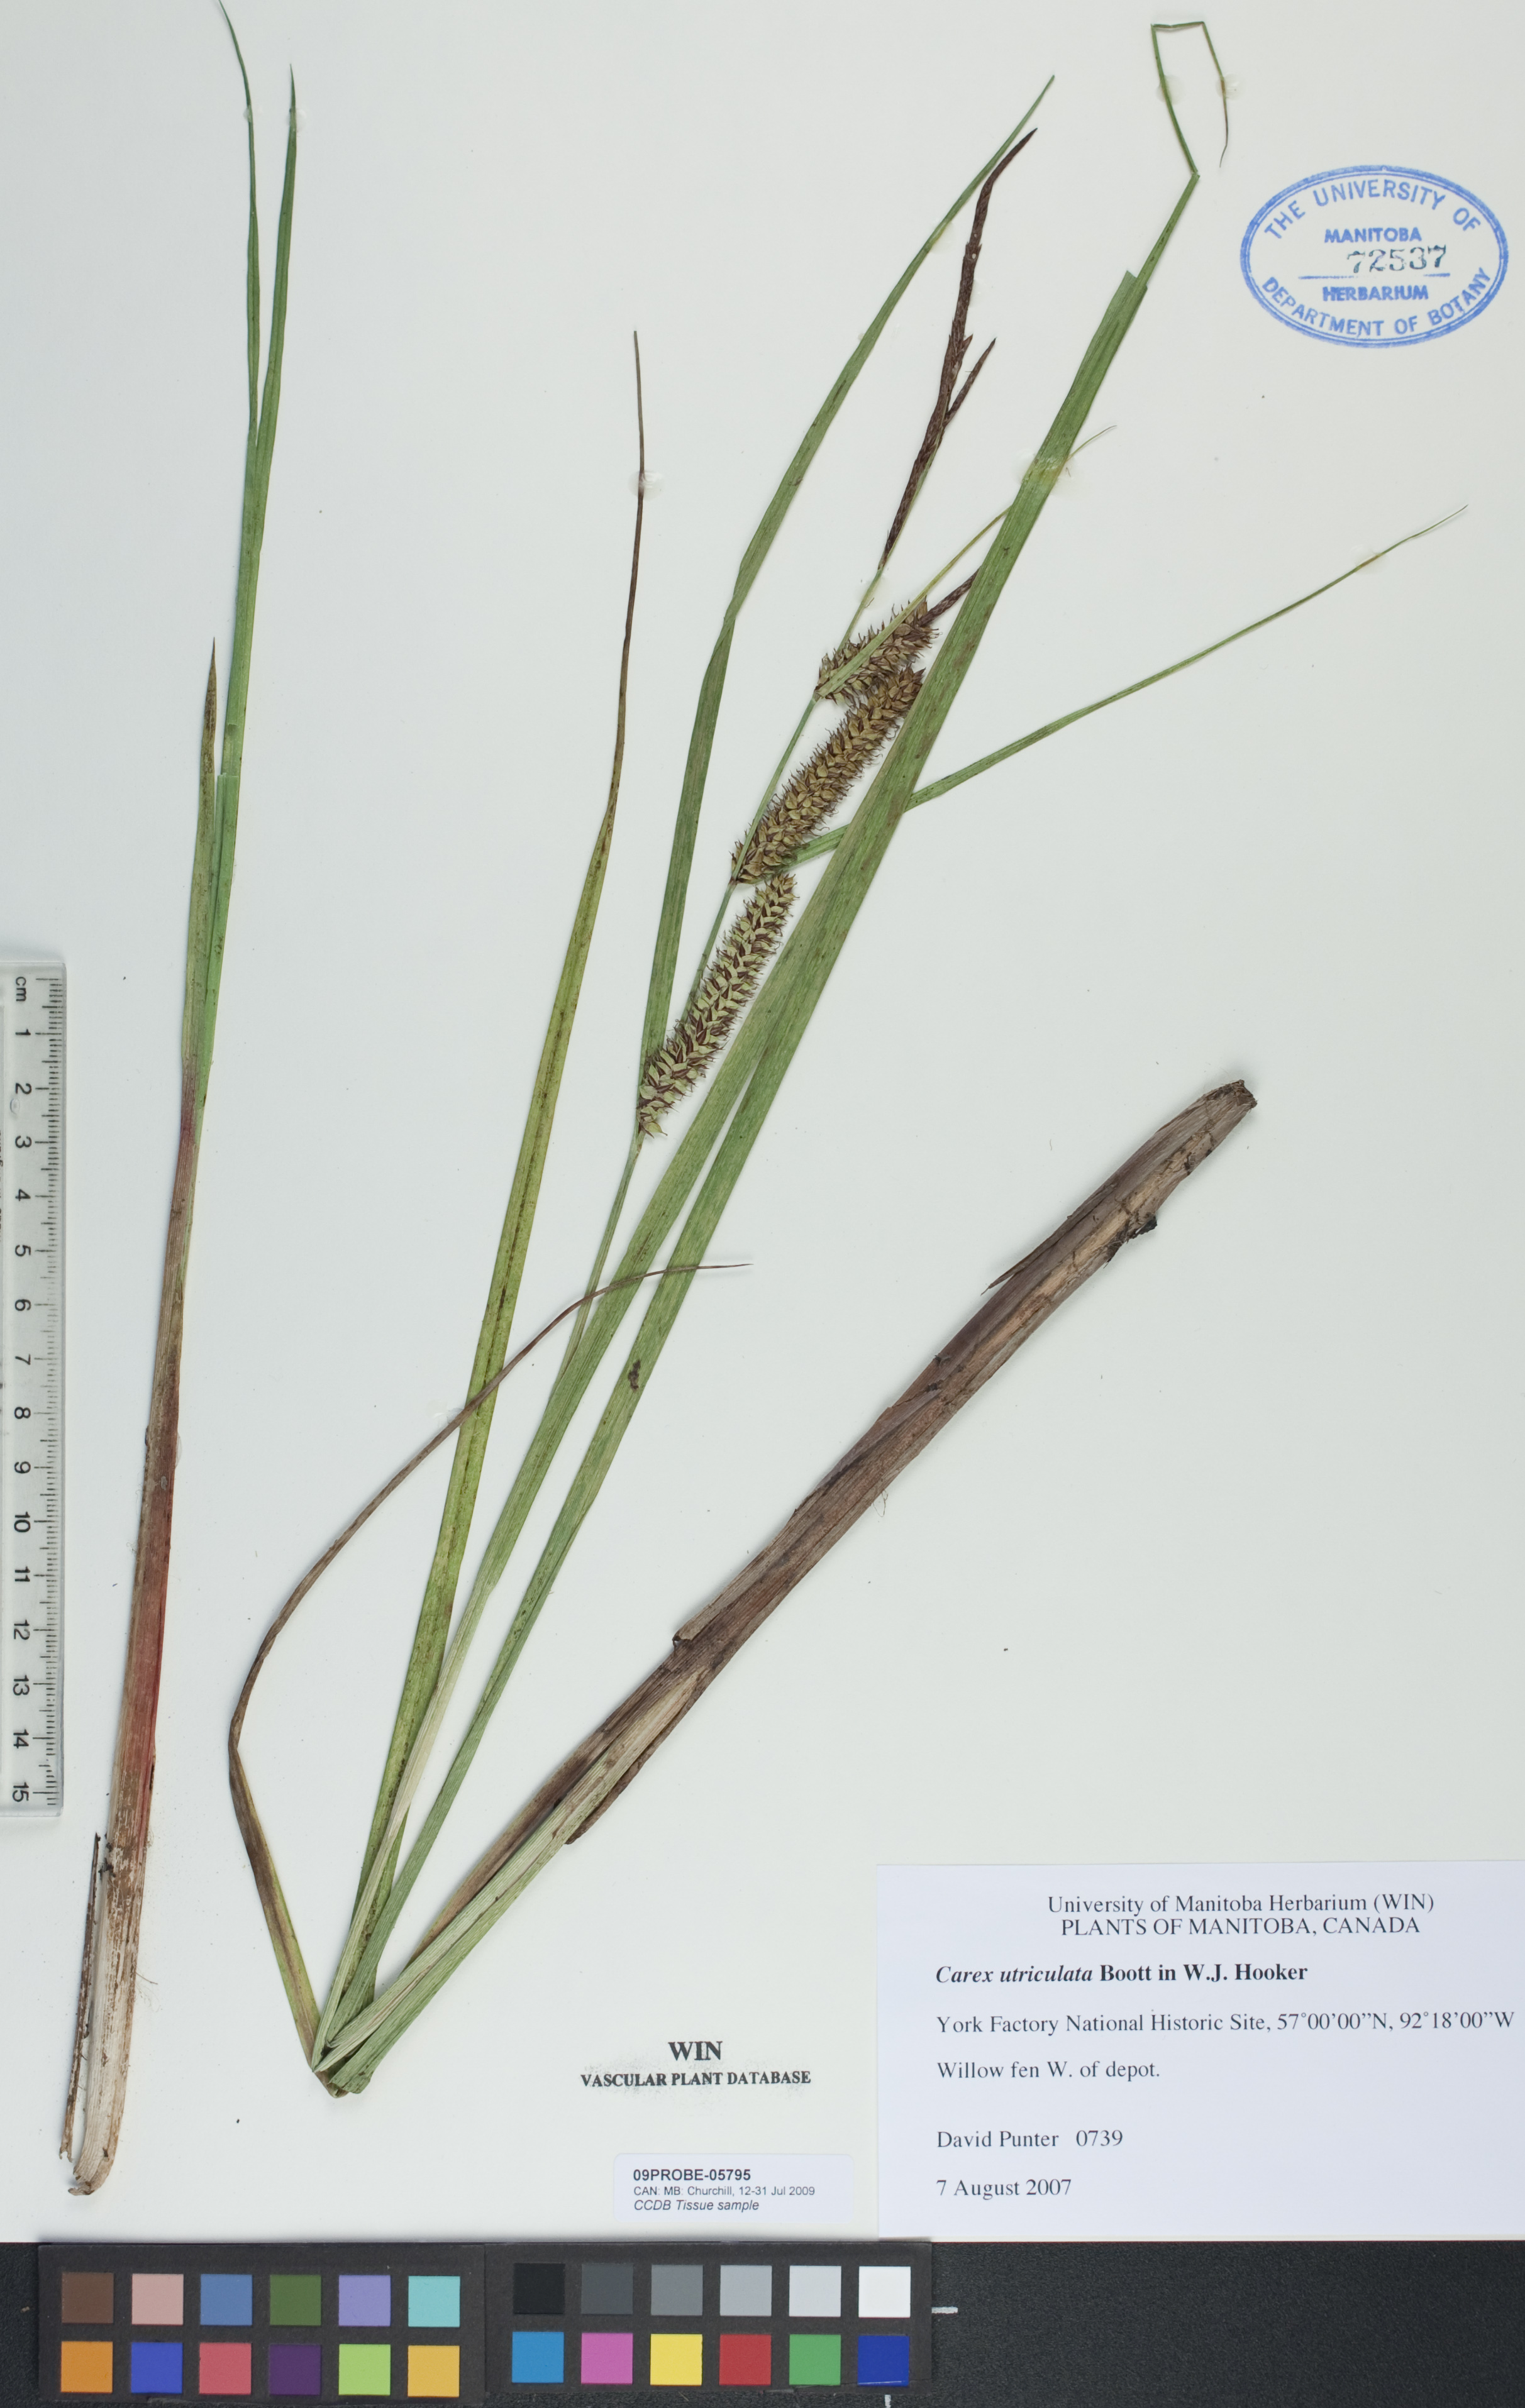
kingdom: Plantae
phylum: Tracheophyta
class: Liliopsida
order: Poales
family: Cyperaceae
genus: Carex
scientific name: Carex utriculata
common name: Beaked sedge
